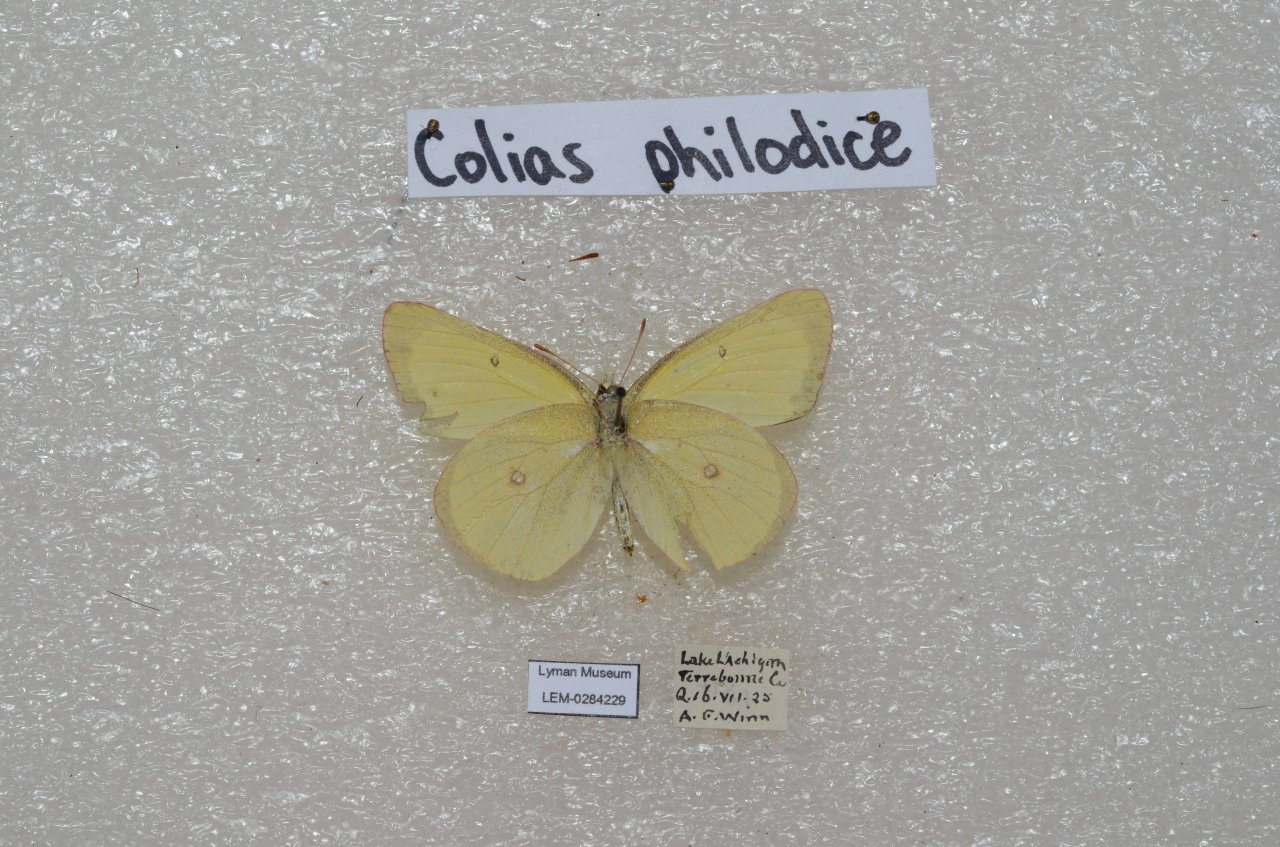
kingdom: Animalia
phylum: Arthropoda
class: Insecta
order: Lepidoptera
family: Pieridae
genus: Colias
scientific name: Colias interior
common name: Pink-edged Sulphur
